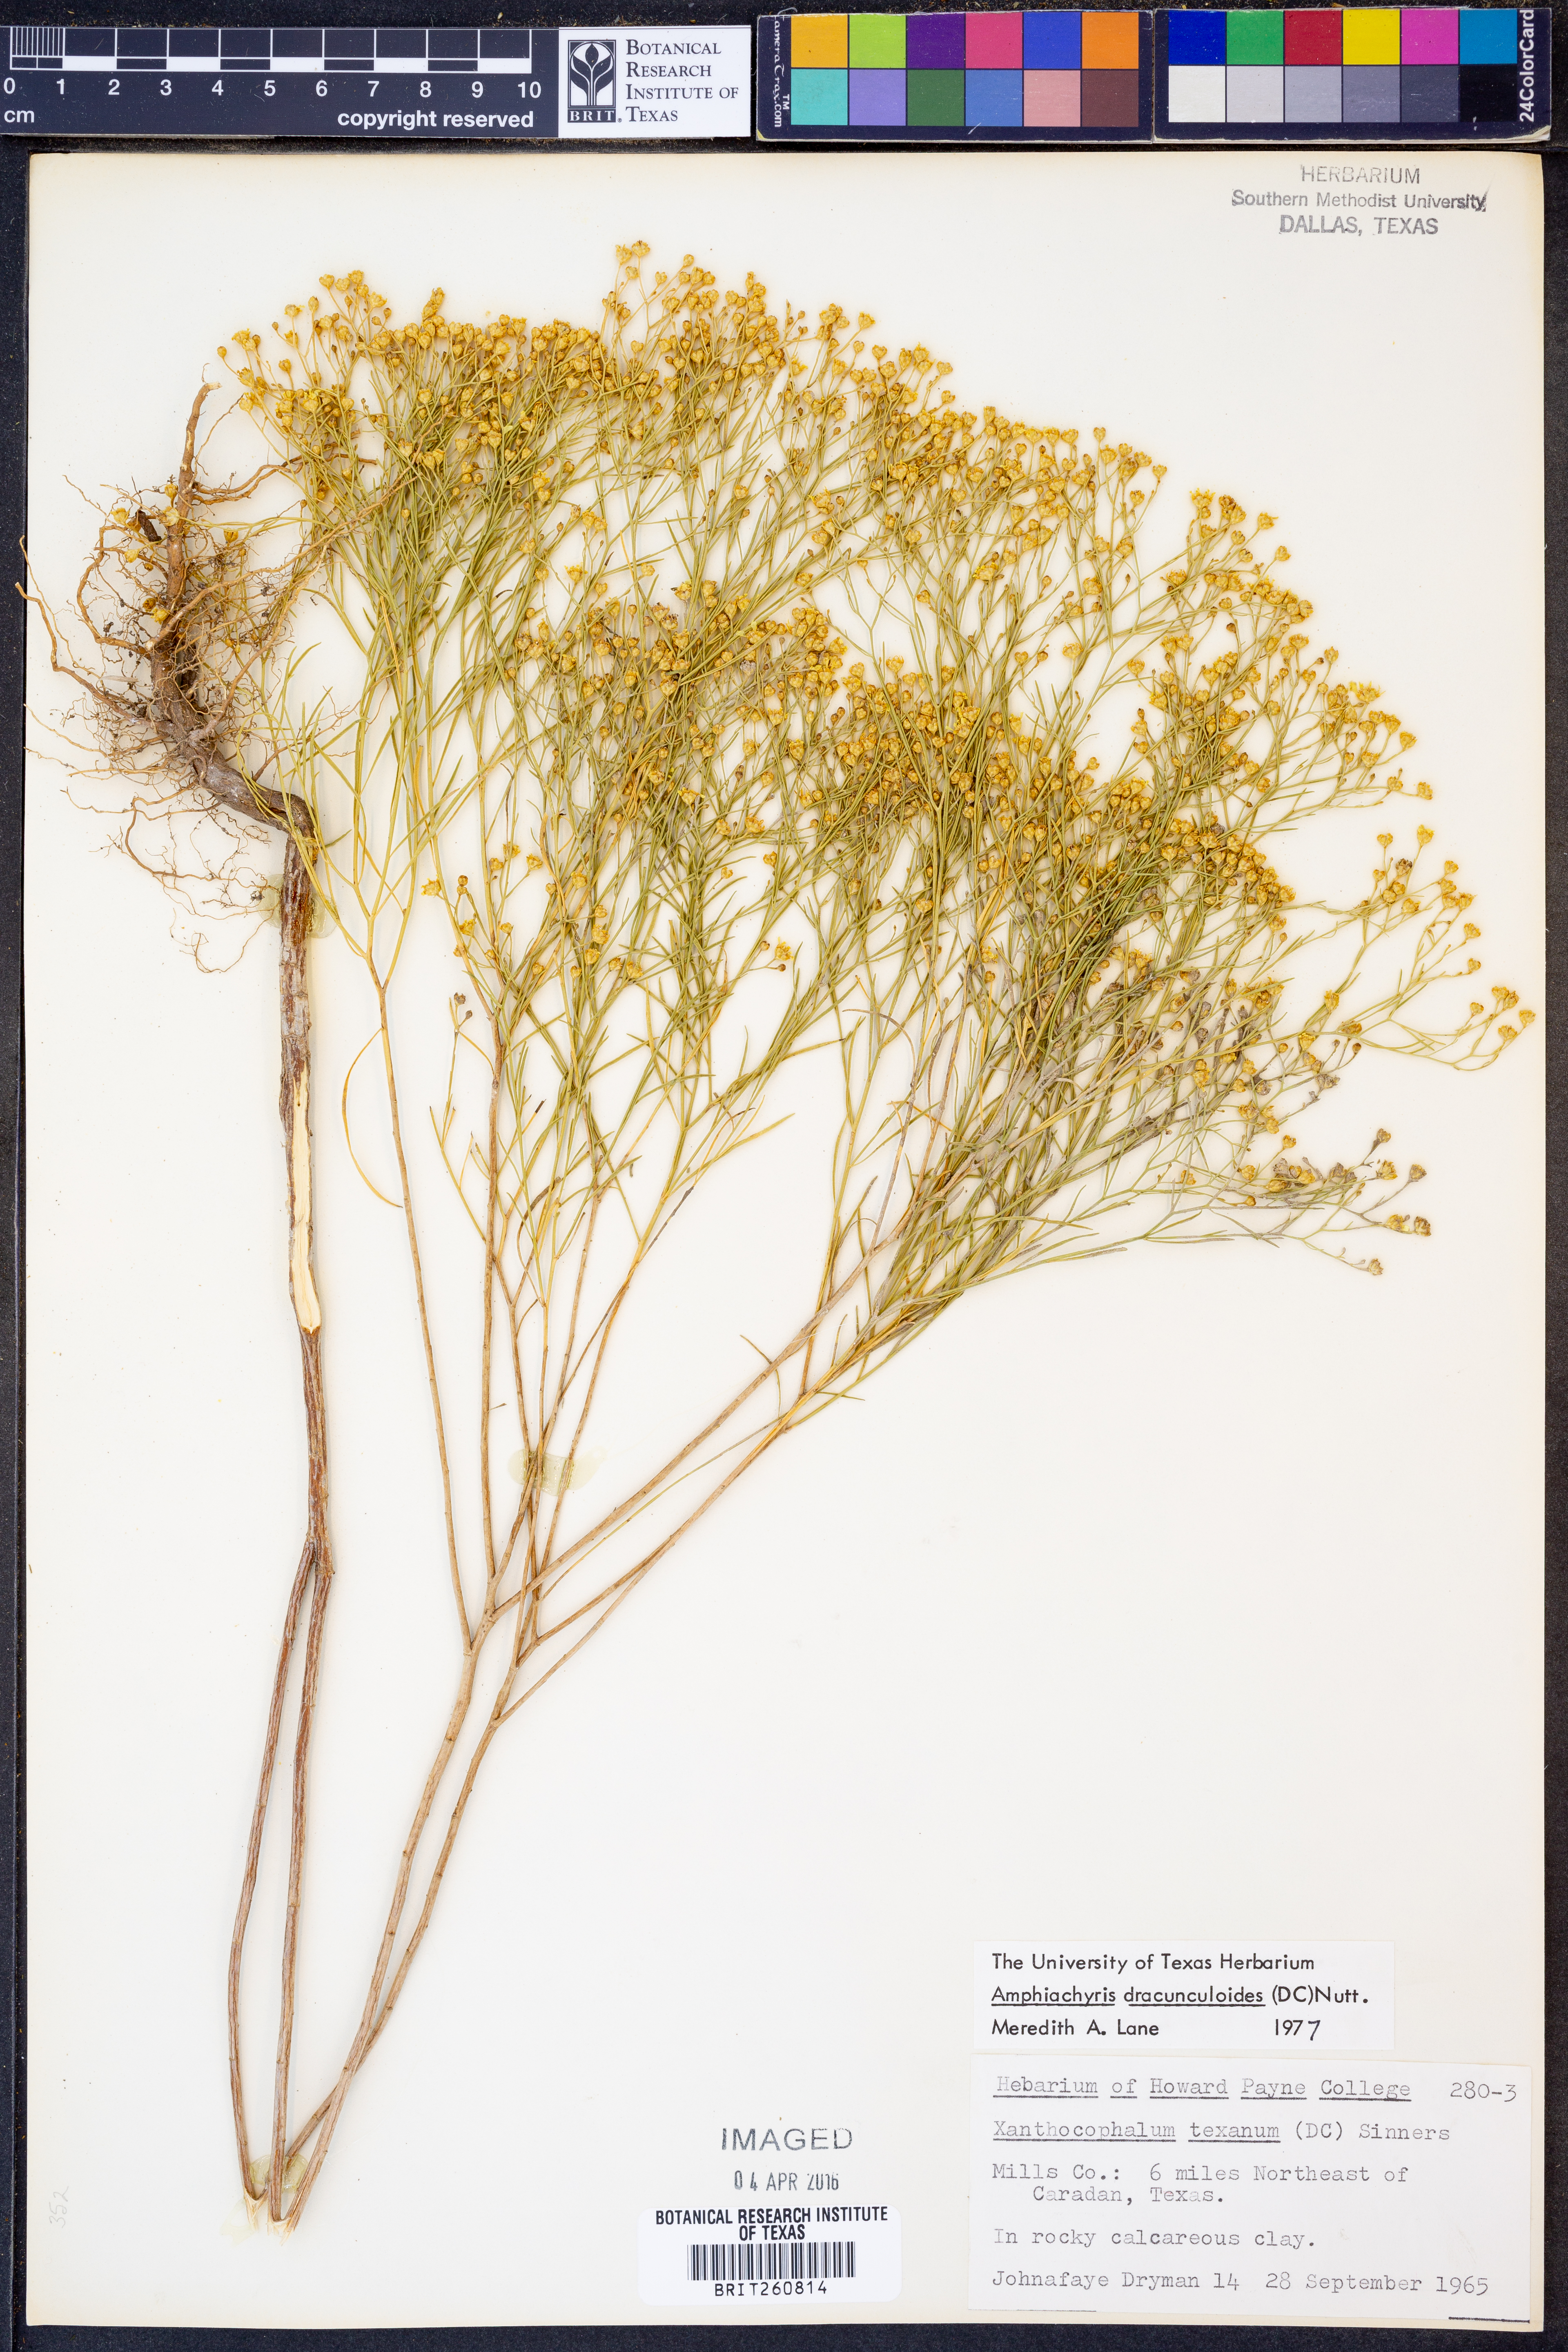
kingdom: Plantae
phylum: Tracheophyta
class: Magnoliopsida
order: Asterales
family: Asteraceae
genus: Amphiachyris
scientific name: Amphiachyris dracunculoides
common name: Broomweed
